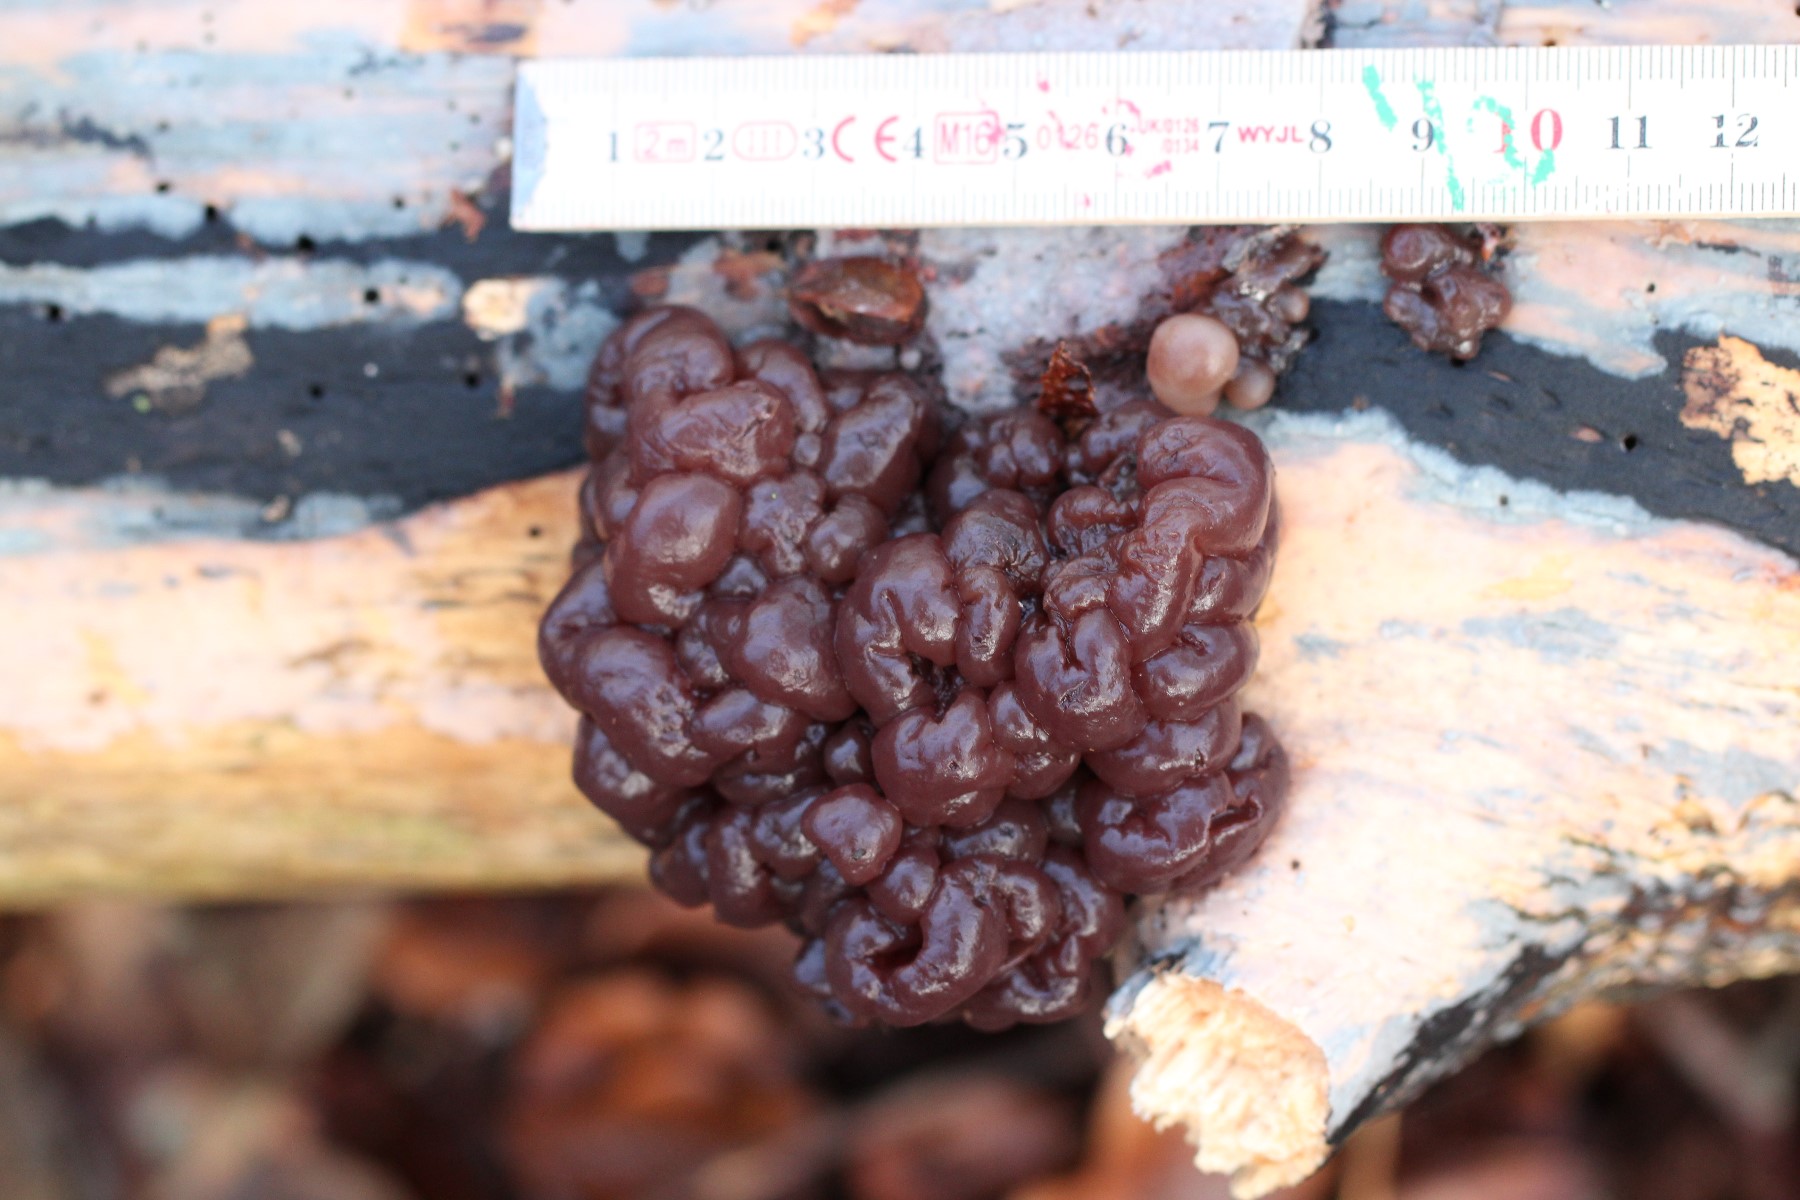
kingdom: Fungi
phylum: Ascomycota
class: Leotiomycetes
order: Helotiales
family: Gelatinodiscaceae
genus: Ascotremella
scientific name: Ascotremella faginea
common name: hjerne-bævreskive
